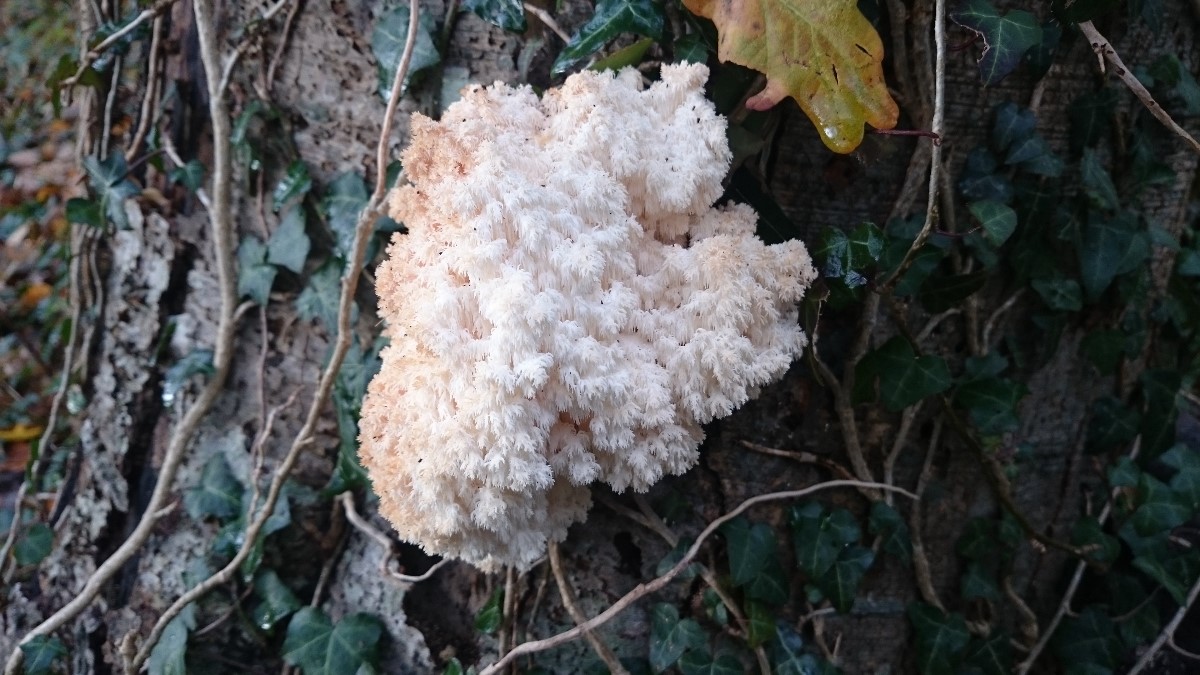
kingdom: Fungi
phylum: Basidiomycota
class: Agaricomycetes
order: Russulales
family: Hericiaceae
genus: Hericium
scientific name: Hericium coralloides
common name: koralpigsvamp
